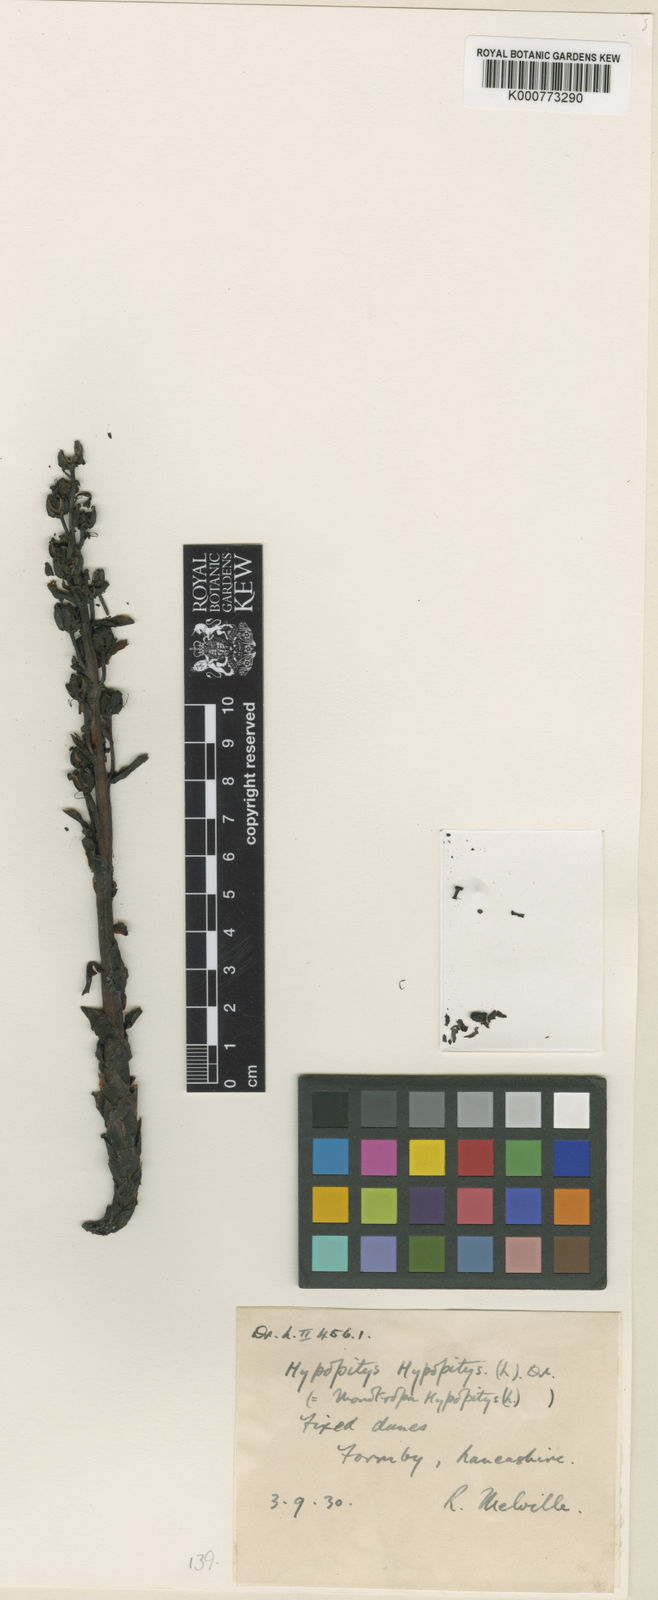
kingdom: Plantae
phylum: Tracheophyta
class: Magnoliopsida
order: Ericales
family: Ericaceae
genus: Monotropa
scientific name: Monotropa
